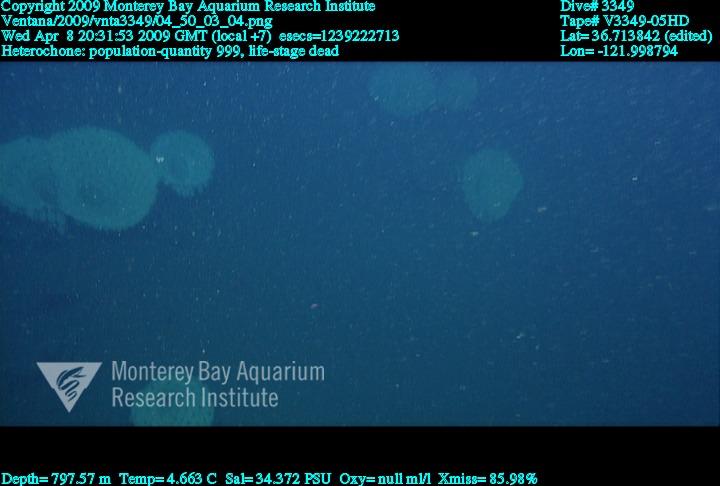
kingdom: Animalia
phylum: Porifera
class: Hexactinellida
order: Sceptrulophora
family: Aphrocallistidae
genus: Heterochone
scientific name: Heterochone
